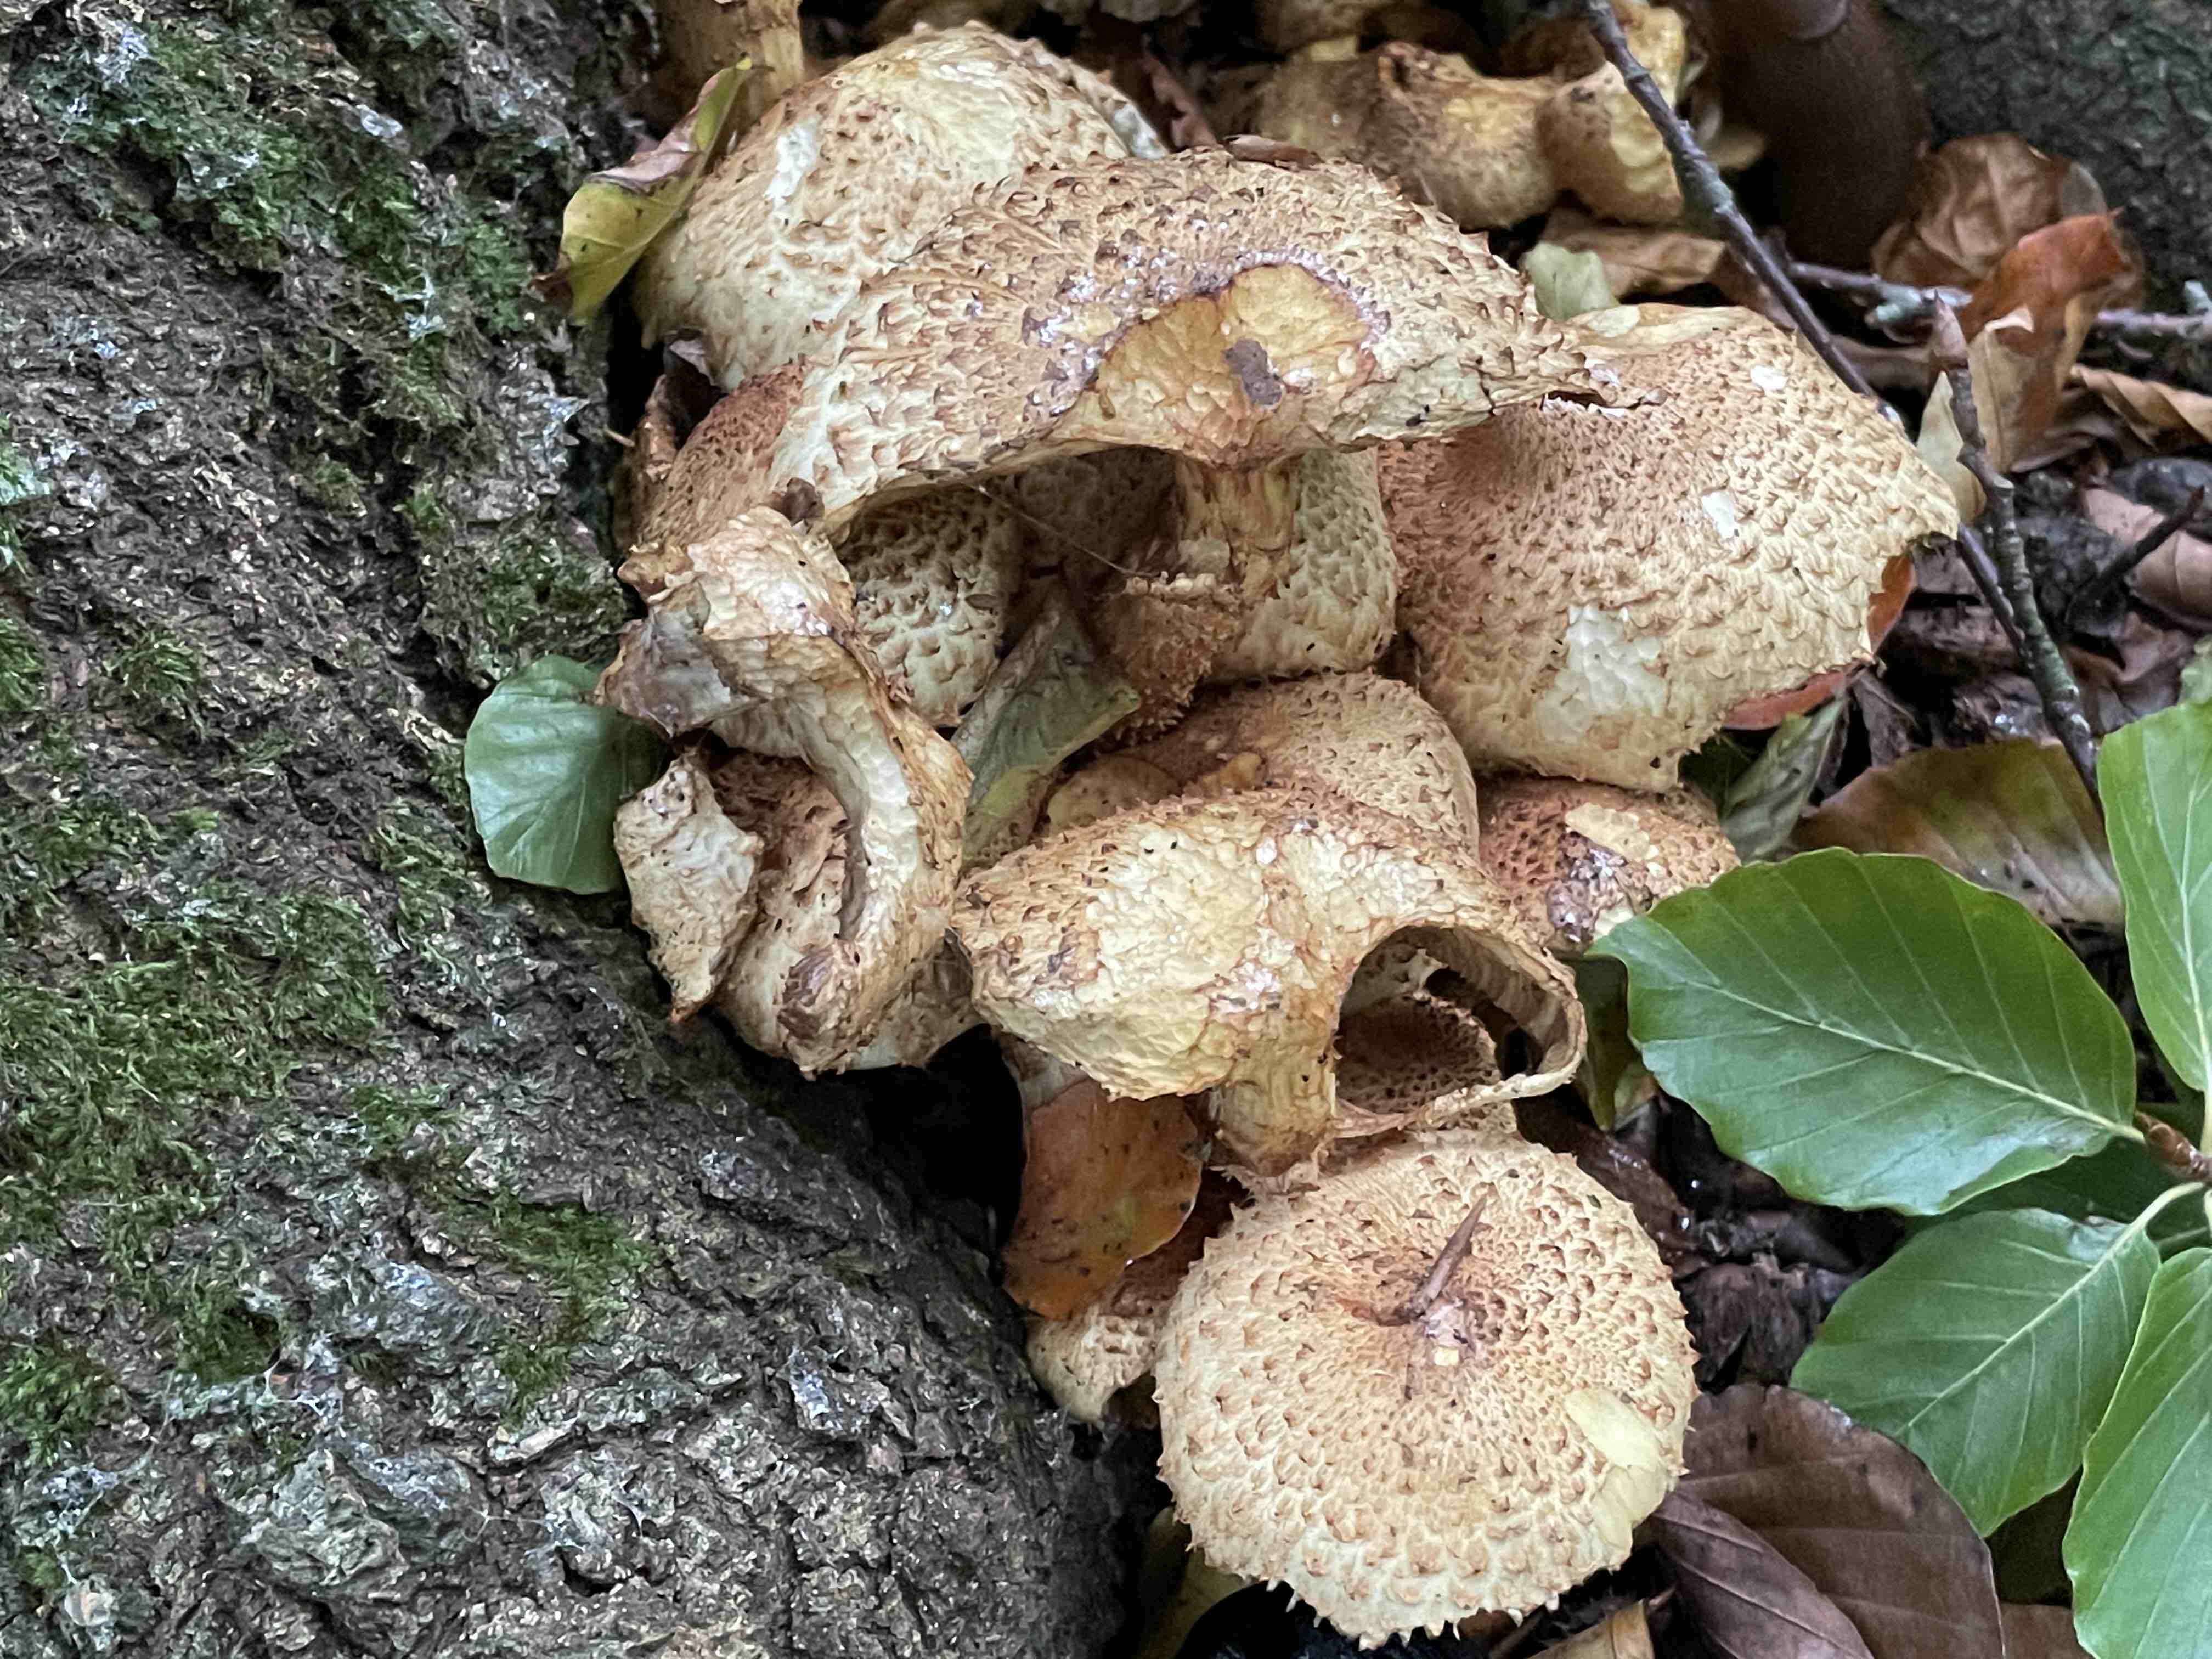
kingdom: Fungi
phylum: Basidiomycota
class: Agaricomycetes
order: Agaricales
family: Strophariaceae
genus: Pholiota
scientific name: Pholiota squarrosa
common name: krumskællet skælhat
